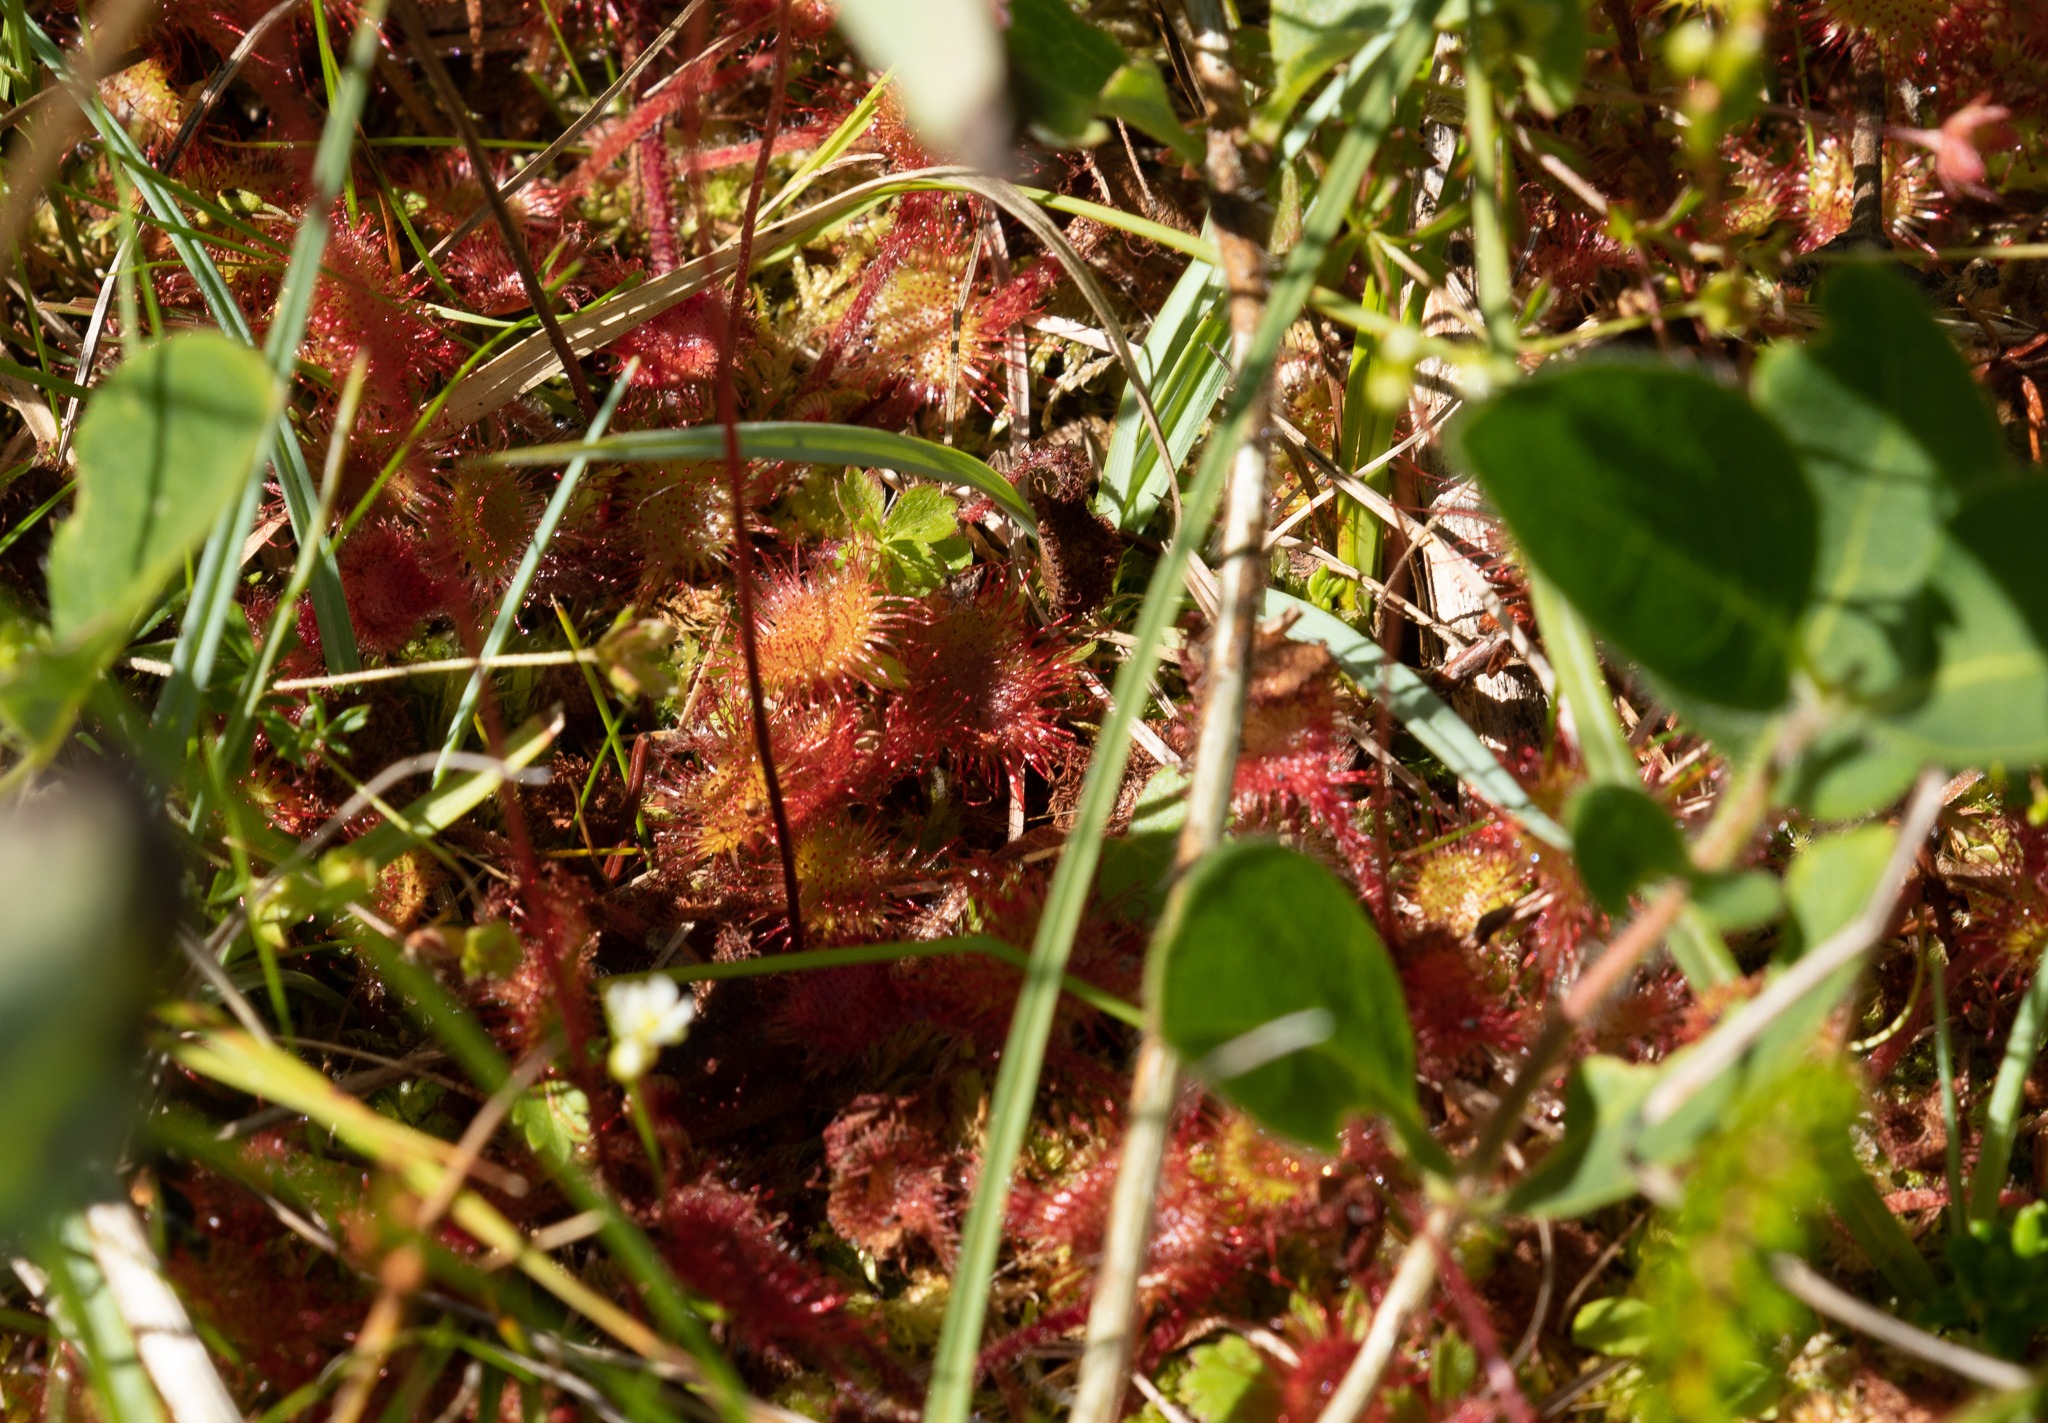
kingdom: Plantae
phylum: Tracheophyta
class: Magnoliopsida
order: Caryophyllales
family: Droseraceae
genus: Drosera
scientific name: Drosera rotundifolia
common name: Rundbladet soldug
